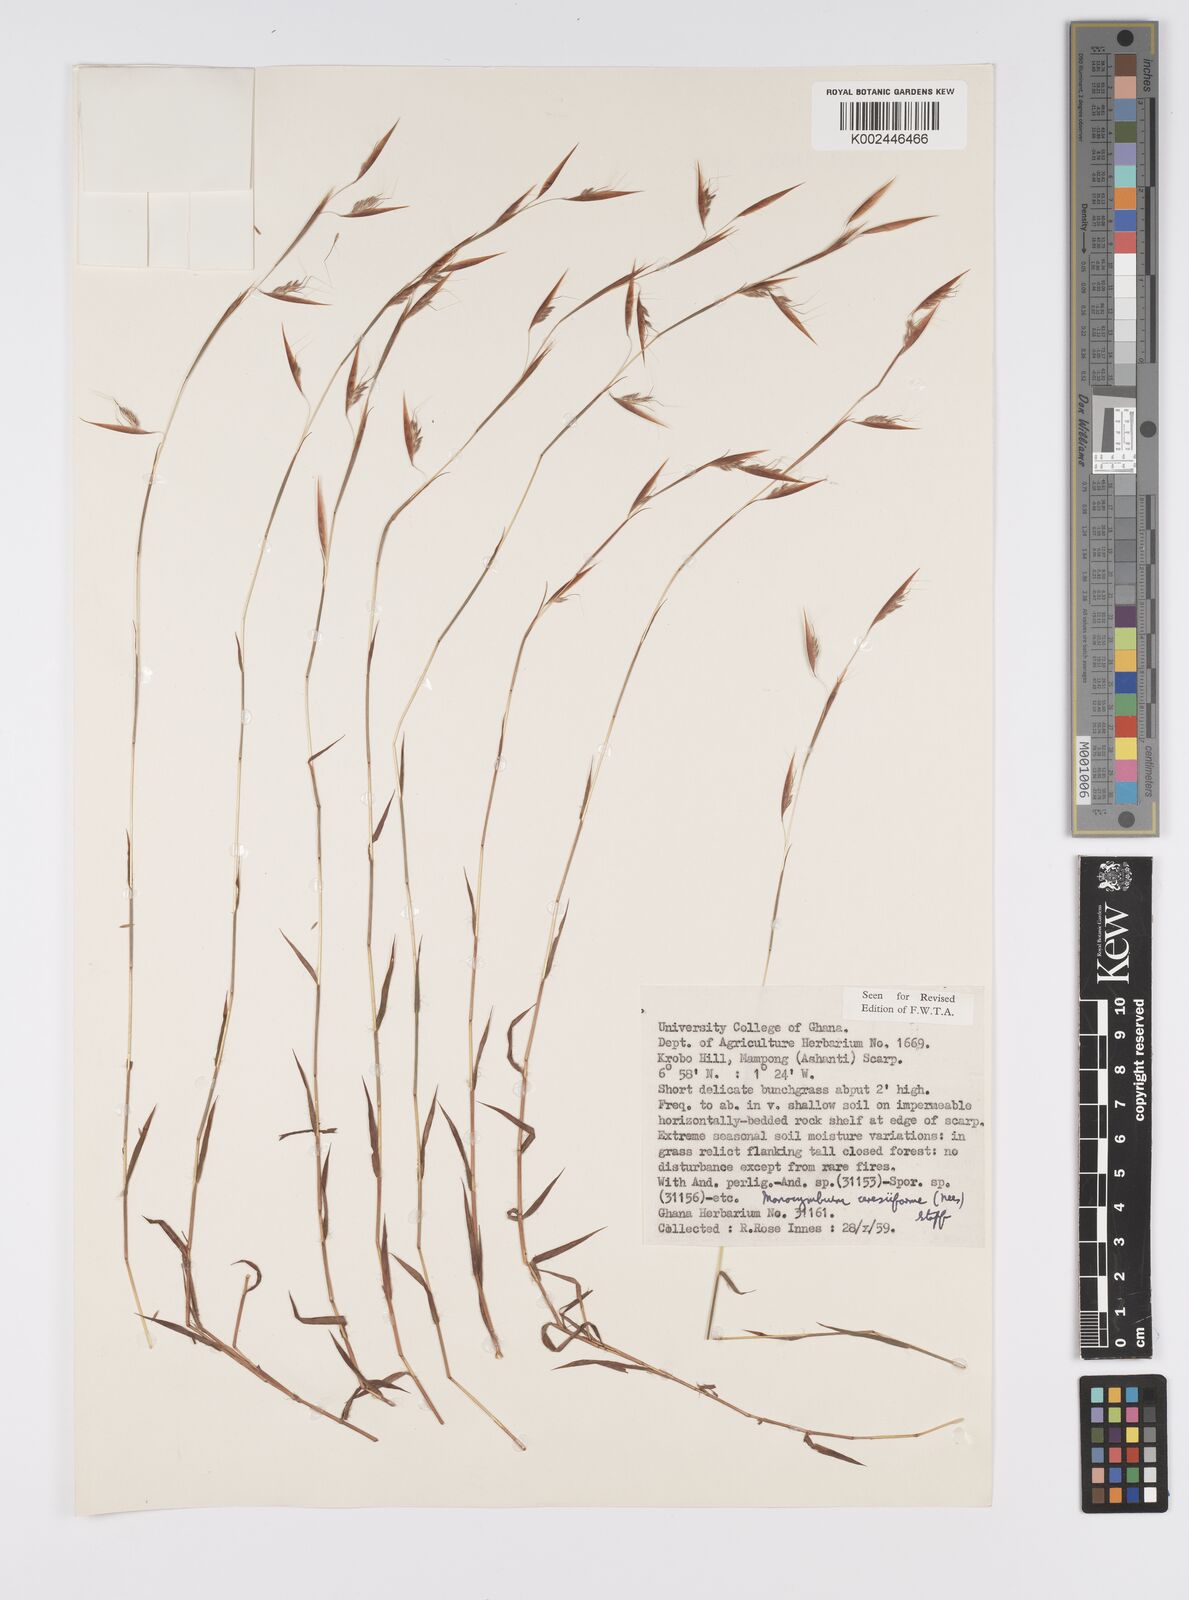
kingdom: Plantae
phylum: Tracheophyta
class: Liliopsida
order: Poales
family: Poaceae
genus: Monocymbium
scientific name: Monocymbium ceresiiforme
